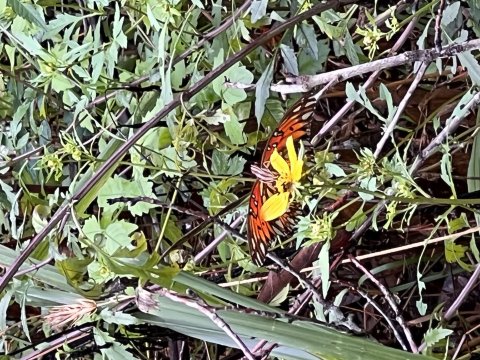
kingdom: Animalia
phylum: Arthropoda
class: Insecta
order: Lepidoptera
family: Nymphalidae
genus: Dione
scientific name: Dione vanillae
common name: Gulf Fritillary
